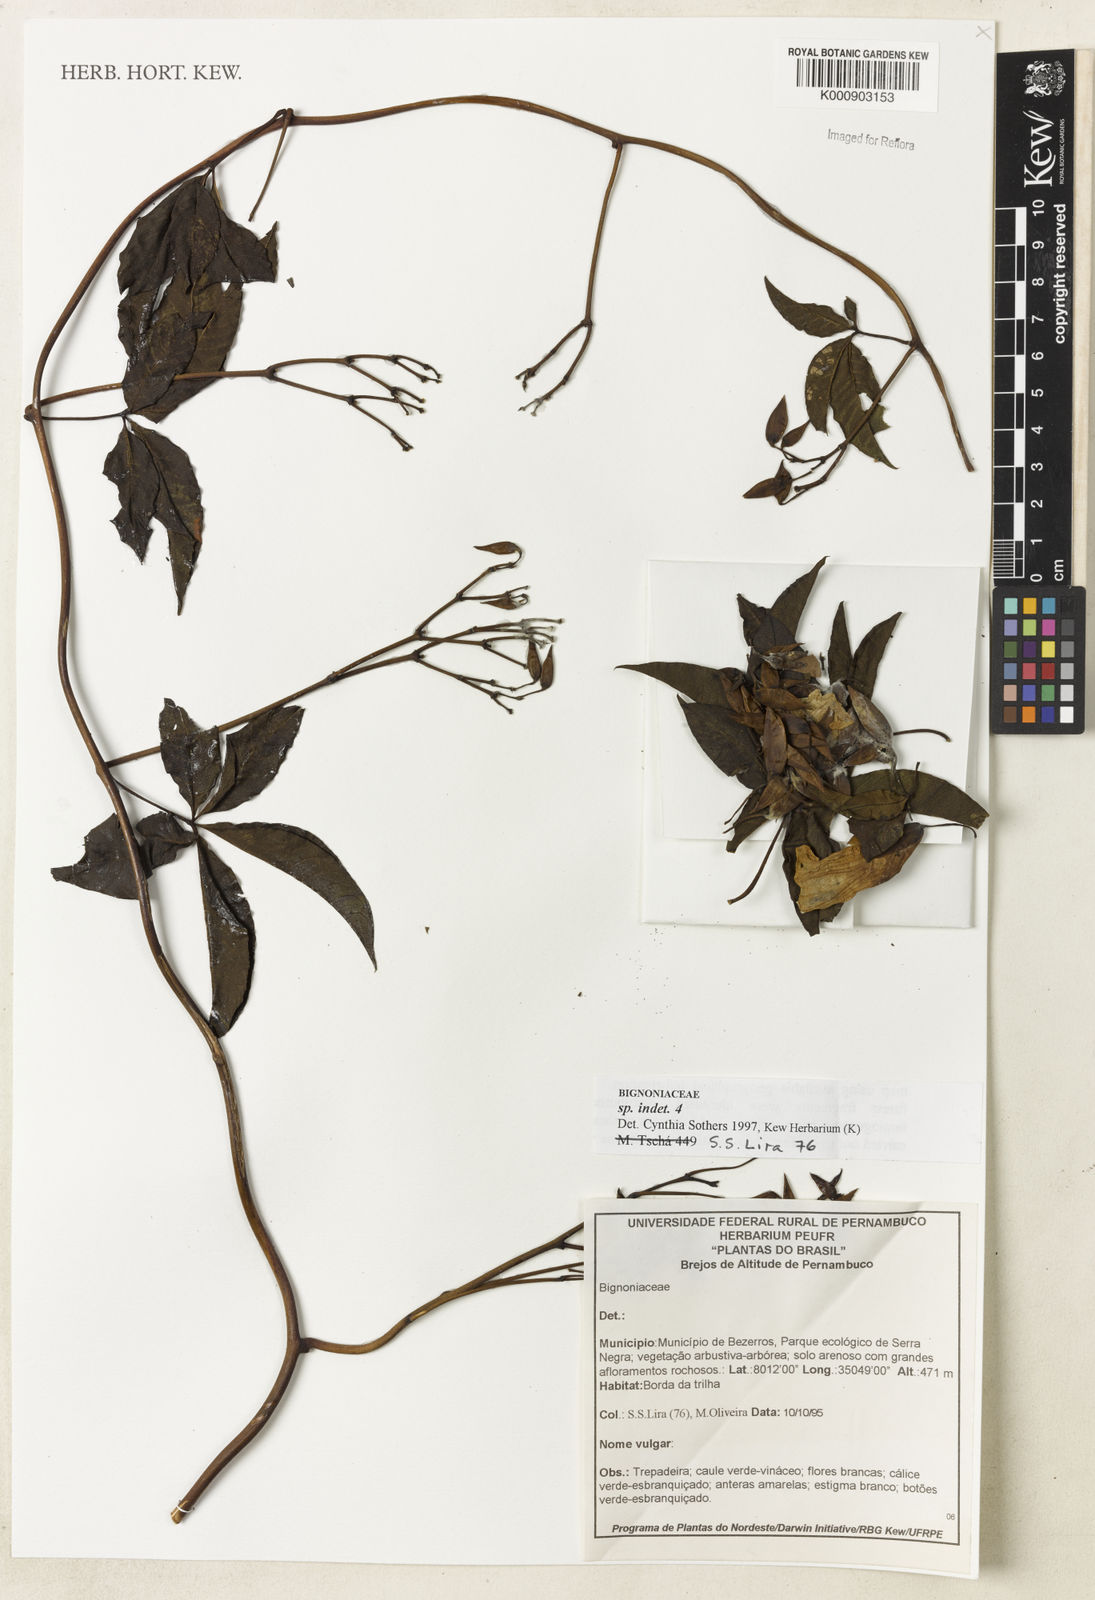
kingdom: Plantae
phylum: Tracheophyta
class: Magnoliopsida
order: Lamiales
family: Bignoniaceae
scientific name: Bignoniaceae
